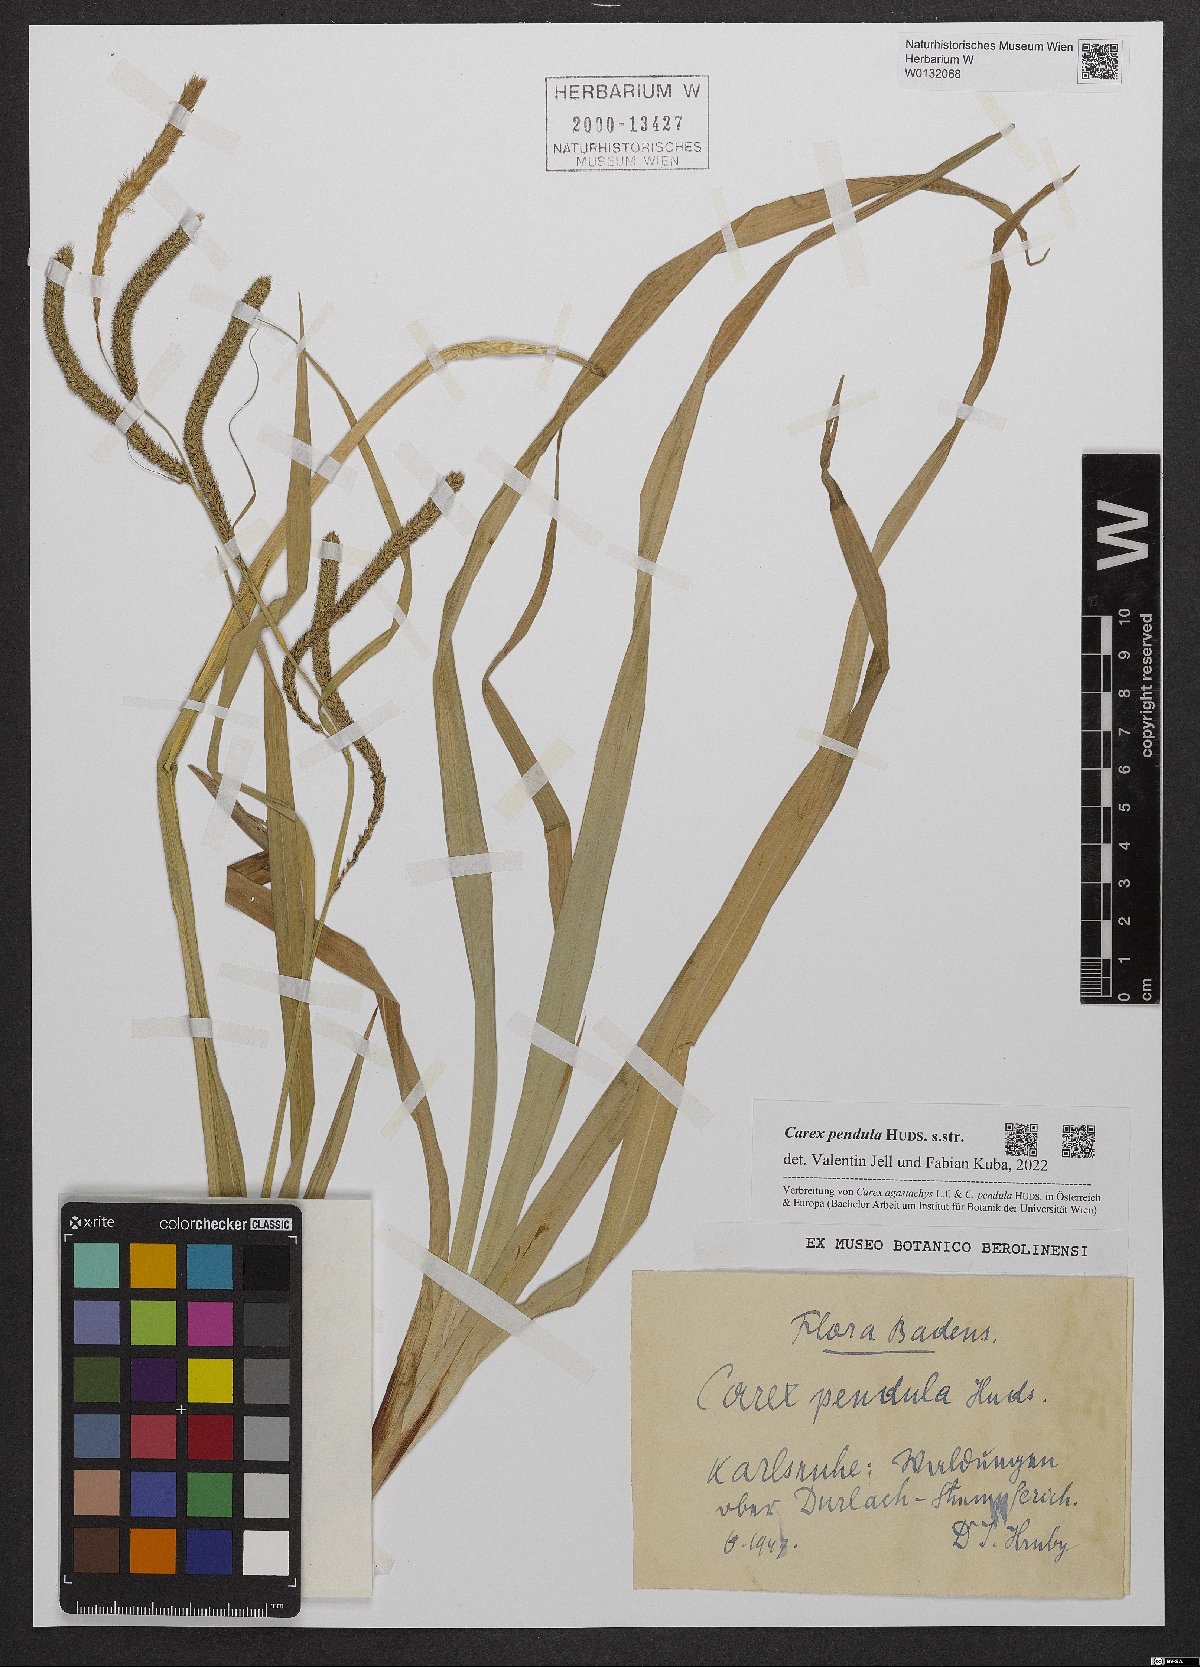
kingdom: Plantae
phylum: Tracheophyta
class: Liliopsida
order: Poales
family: Cyperaceae
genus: Carex
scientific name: Carex pendula
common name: Pendulous sedge
